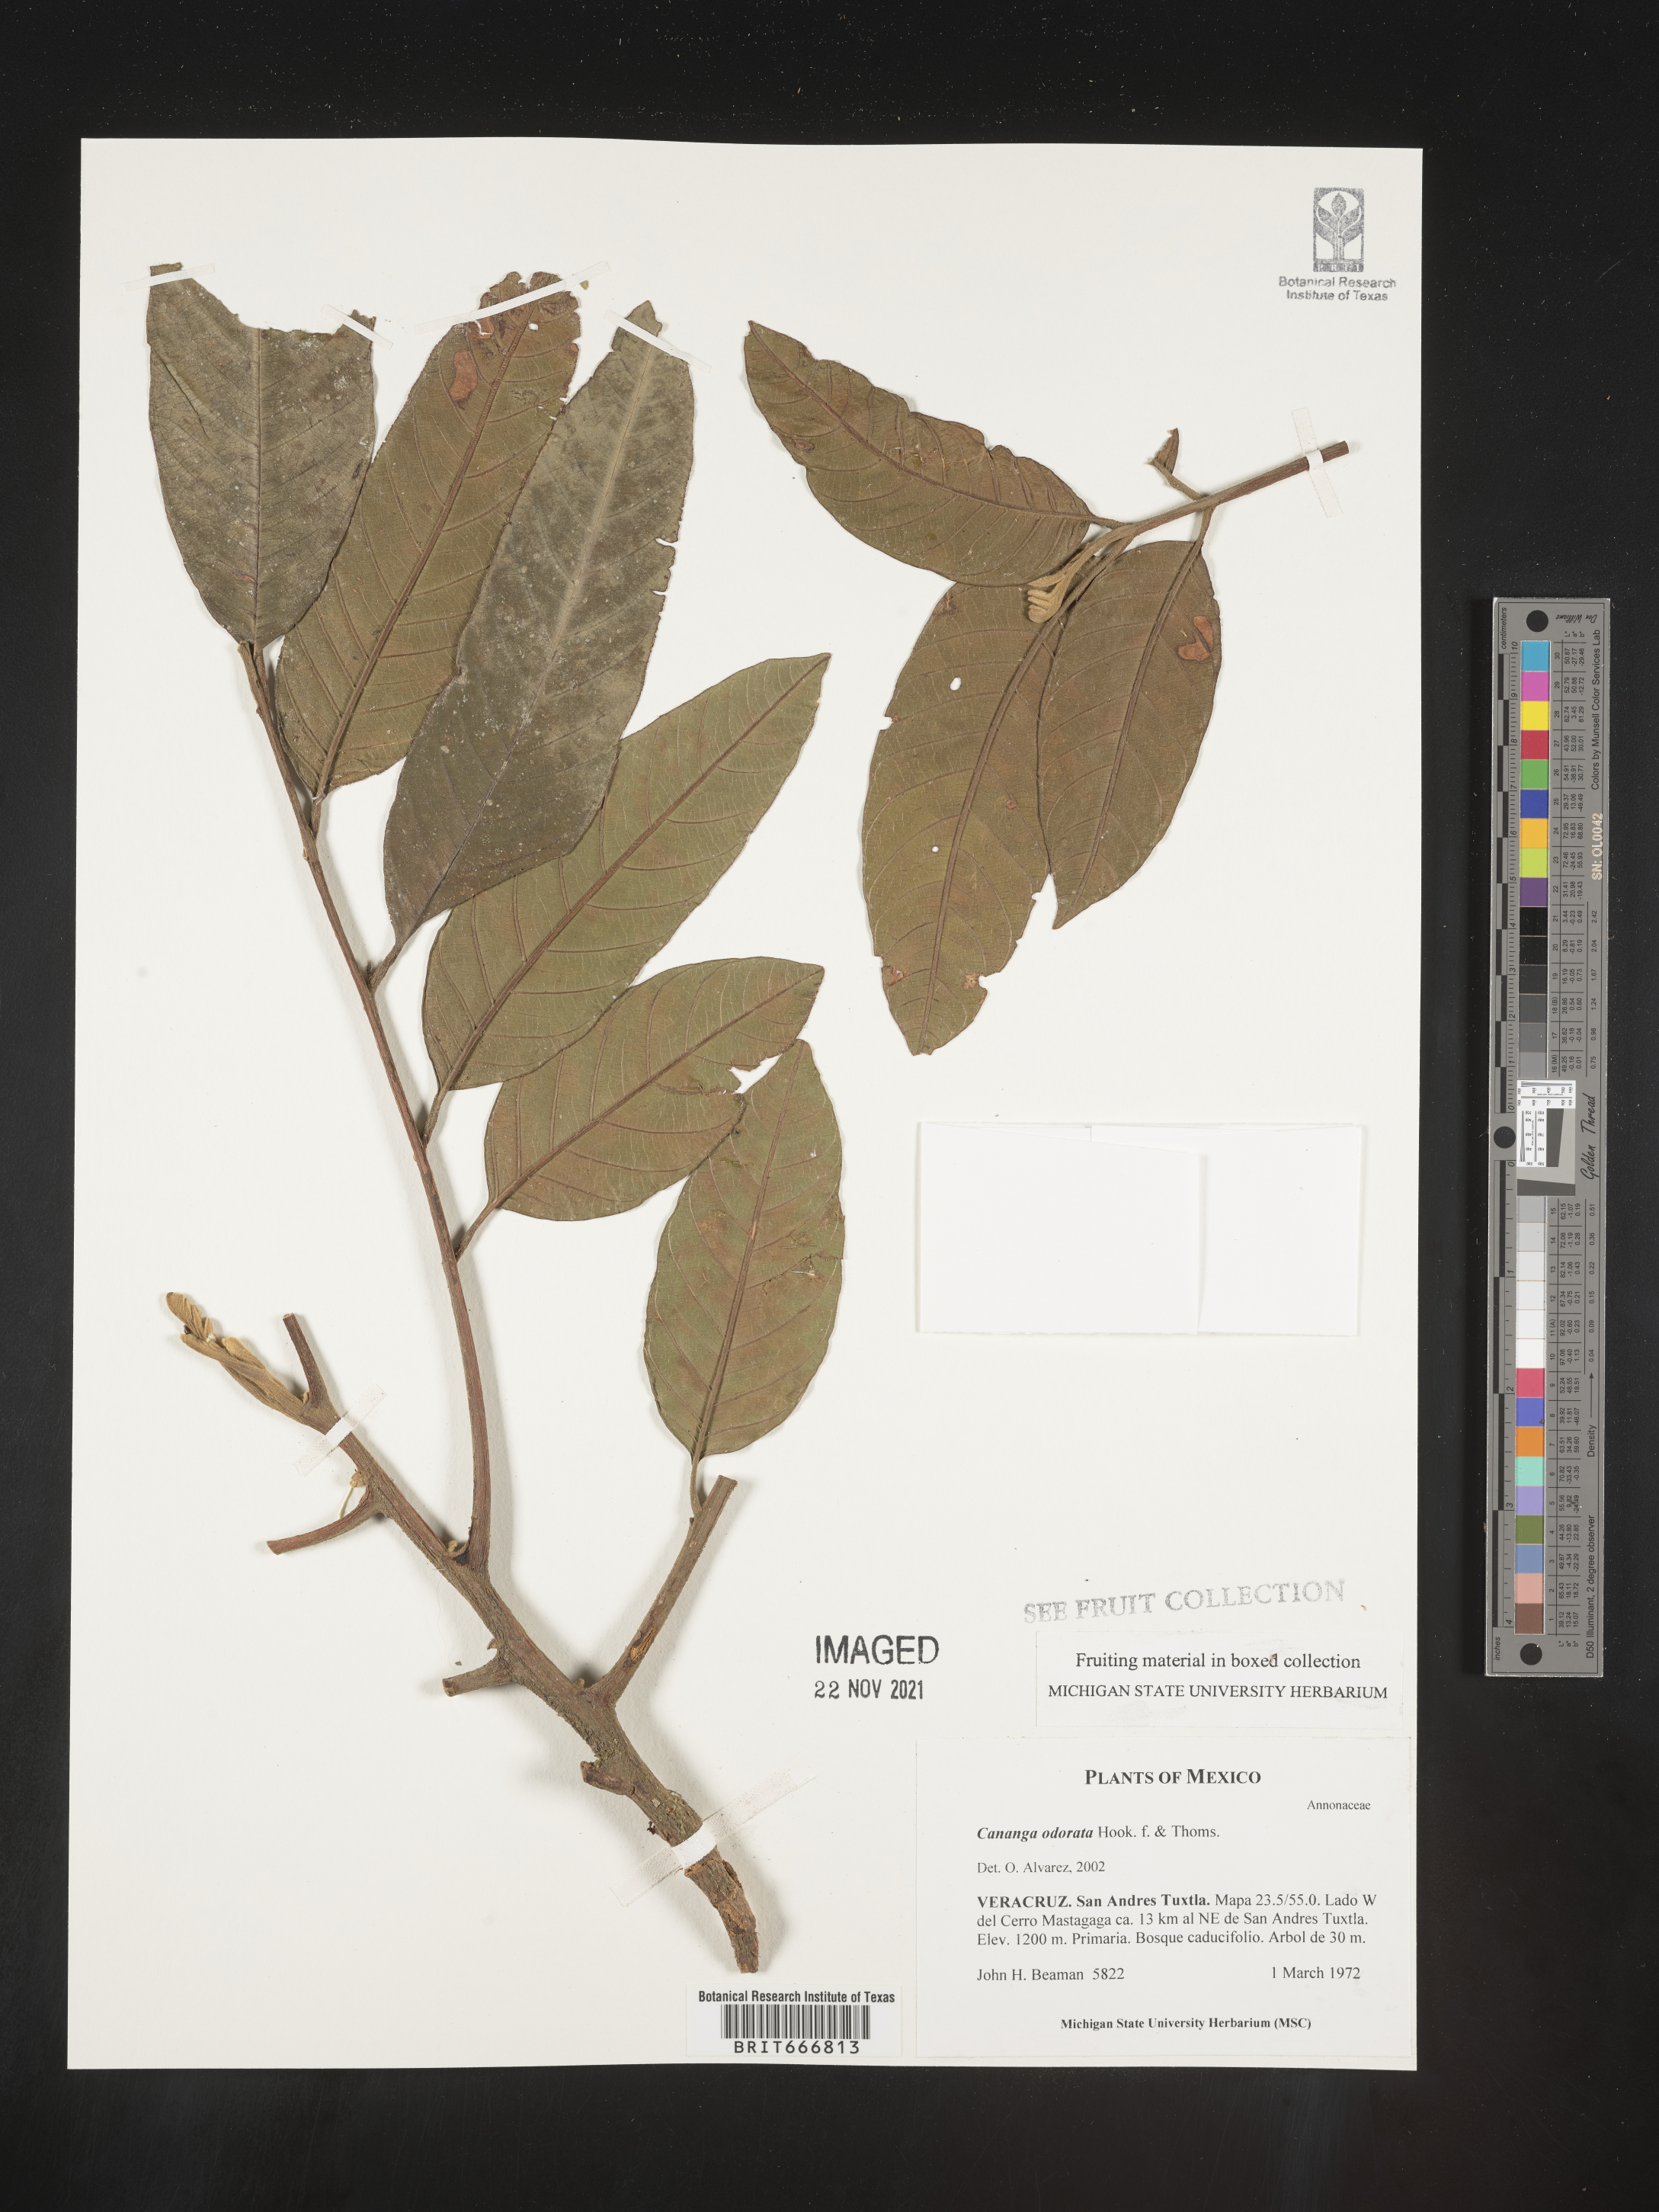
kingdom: Plantae
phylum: Tracheophyta
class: Magnoliopsida
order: Magnoliales
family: Annonaceae
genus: Cananga
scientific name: Cananga
